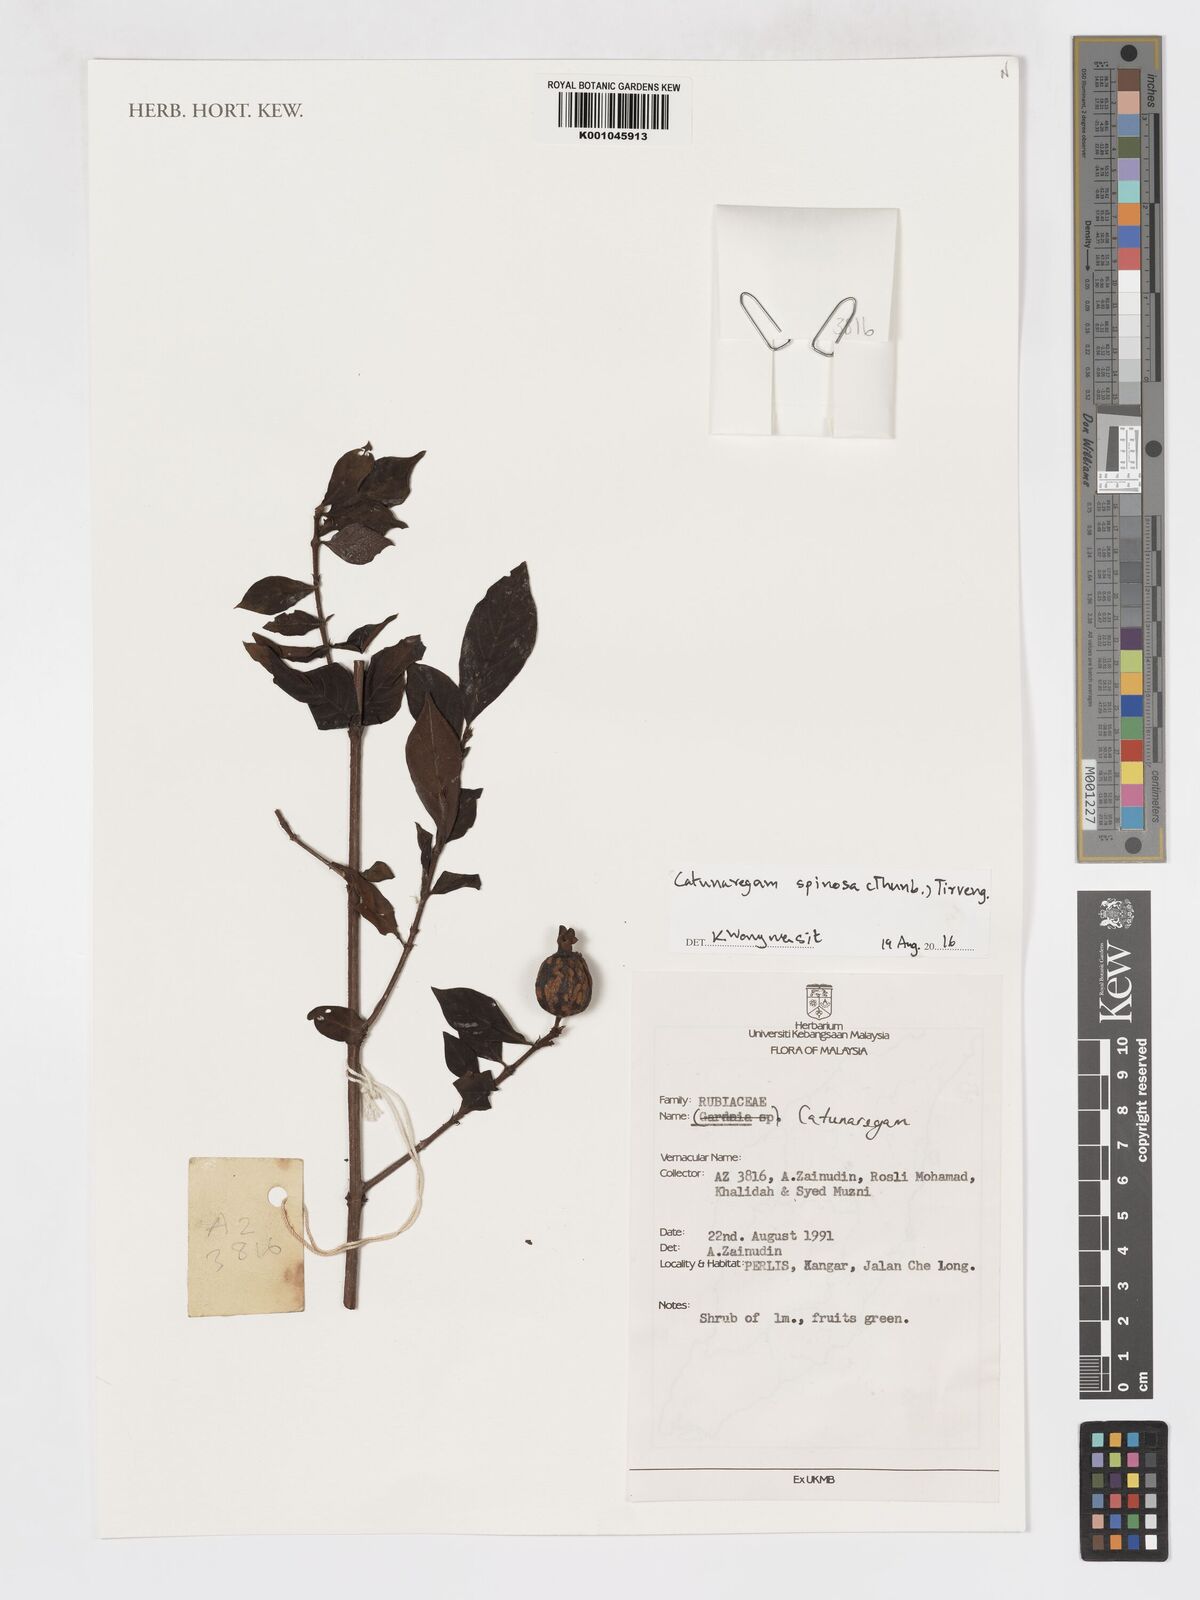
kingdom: Plantae
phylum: Tracheophyta
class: Magnoliopsida
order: Gentianales
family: Rubiaceae
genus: Catunaregam
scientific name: Catunaregam spinosa
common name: Emetic-nut
